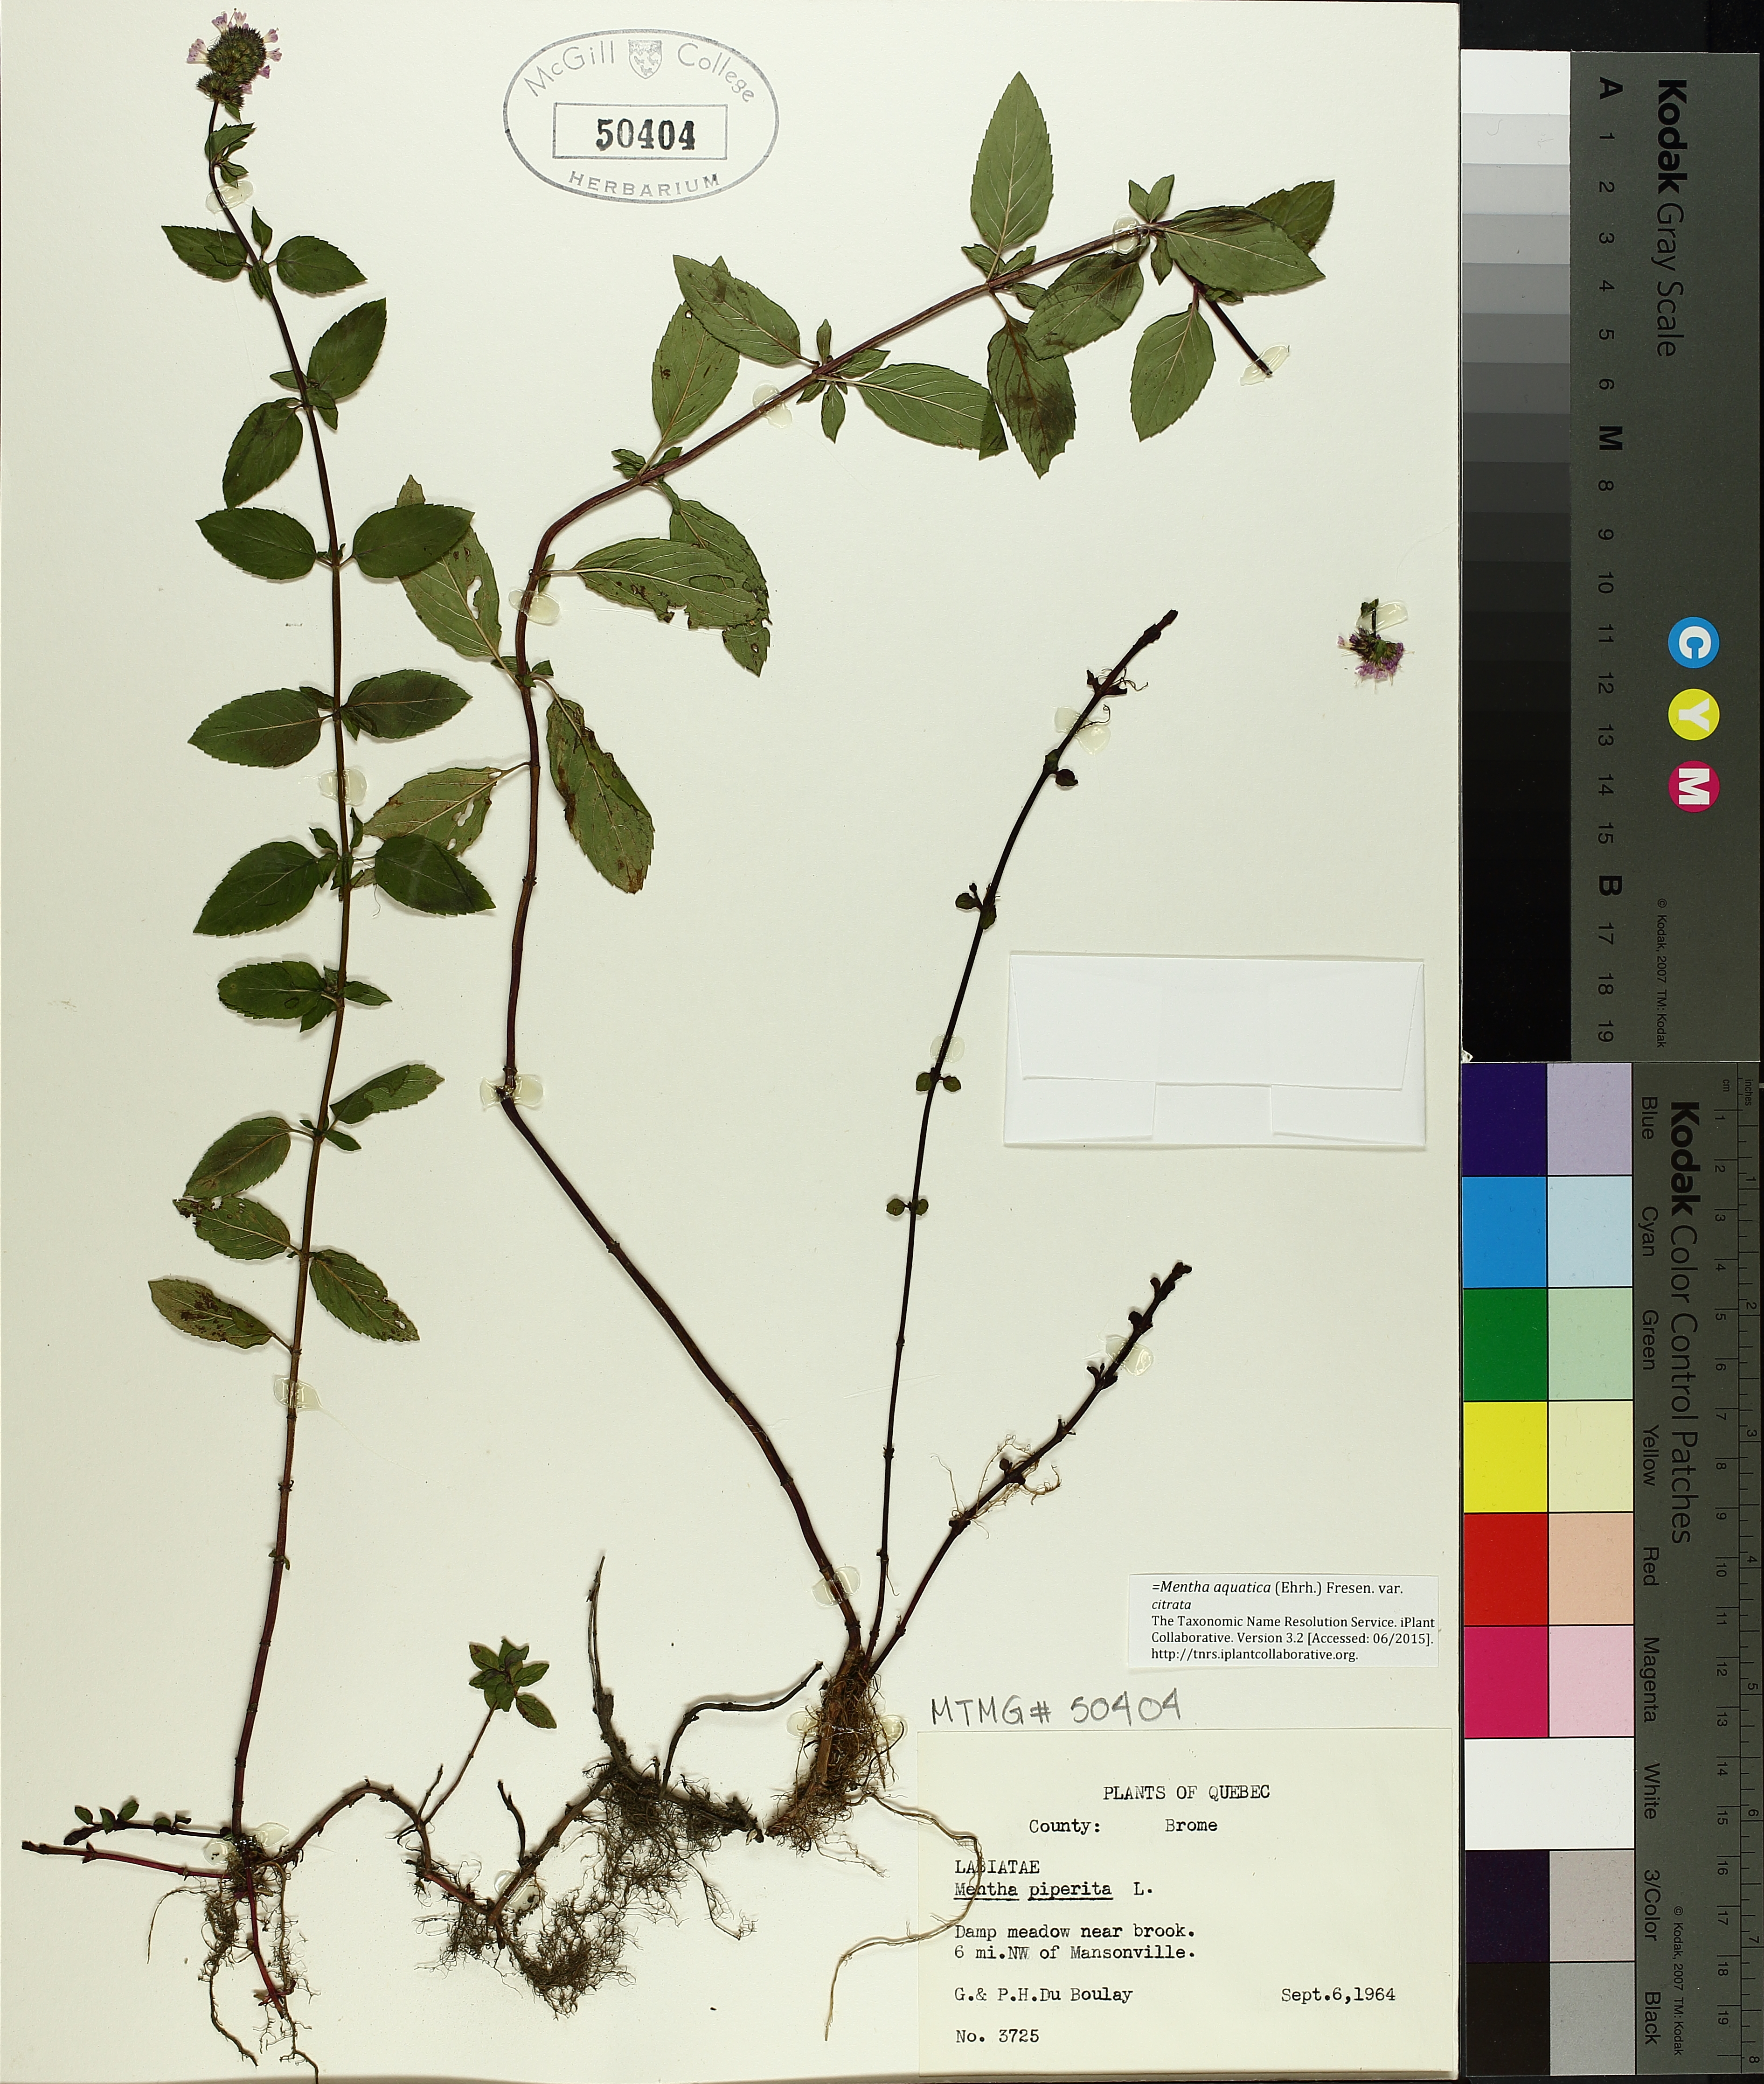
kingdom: Plantae
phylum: Tracheophyta
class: Magnoliopsida
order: Lamiales
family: Lamiaceae
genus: Mentha
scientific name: Mentha piperita
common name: Peppermint
